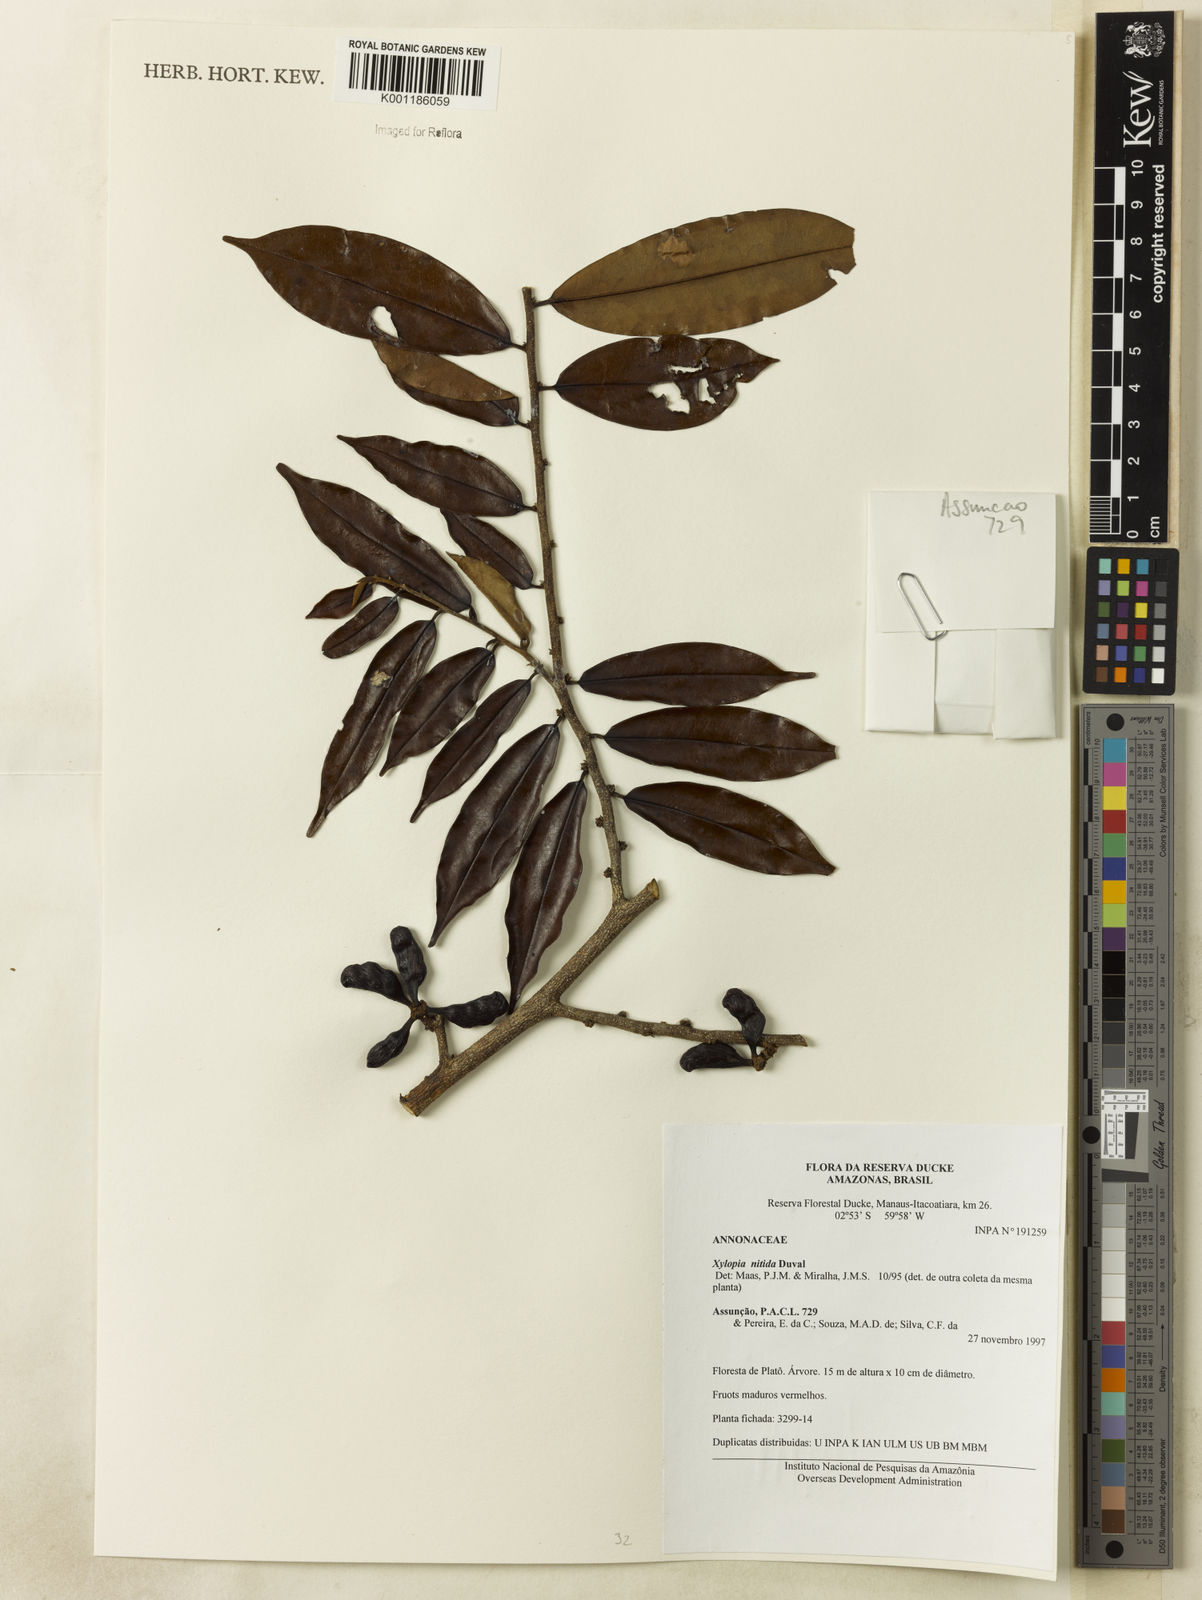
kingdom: Plantae
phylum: Tracheophyta
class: Magnoliopsida
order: Magnoliales
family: Annonaceae
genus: Xylopia
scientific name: Xylopia nitida
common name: White kuyama
